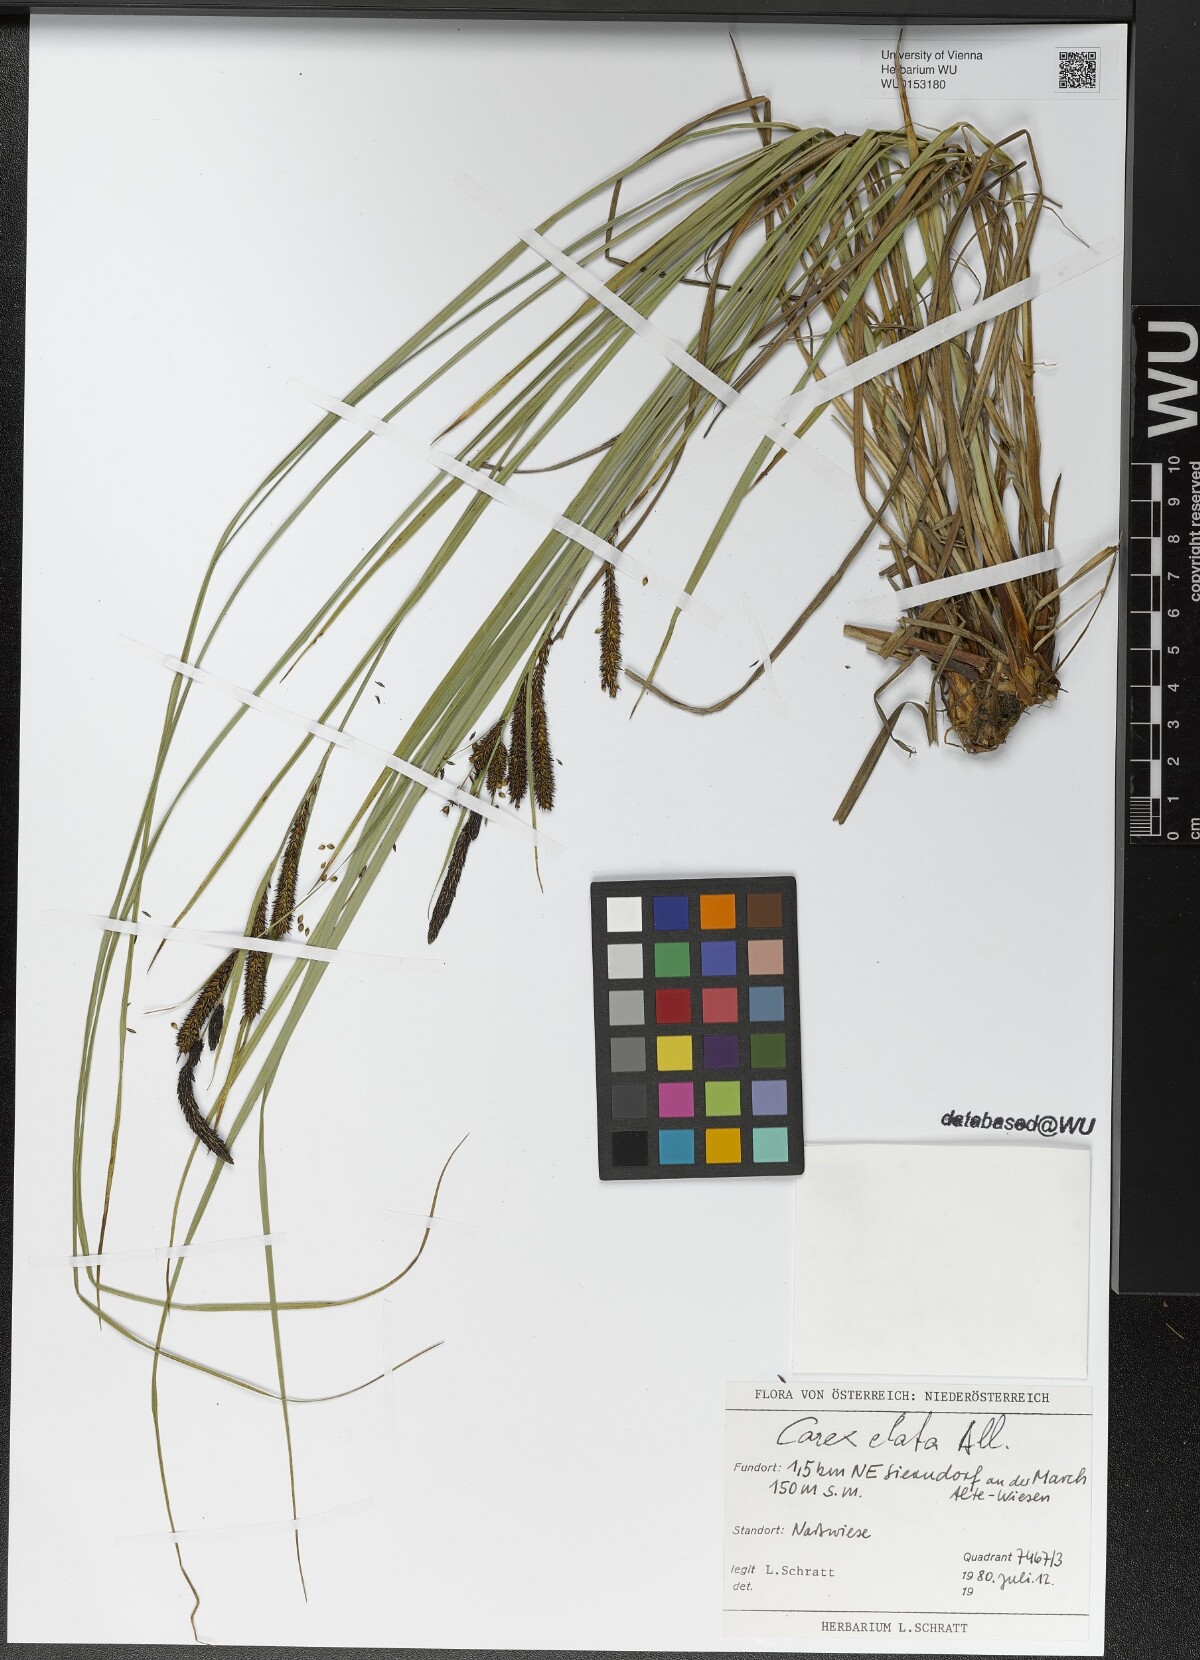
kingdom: Plantae
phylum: Tracheophyta
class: Liliopsida
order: Poales
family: Cyperaceae
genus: Carex
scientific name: Carex elata
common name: Tufted sedge
